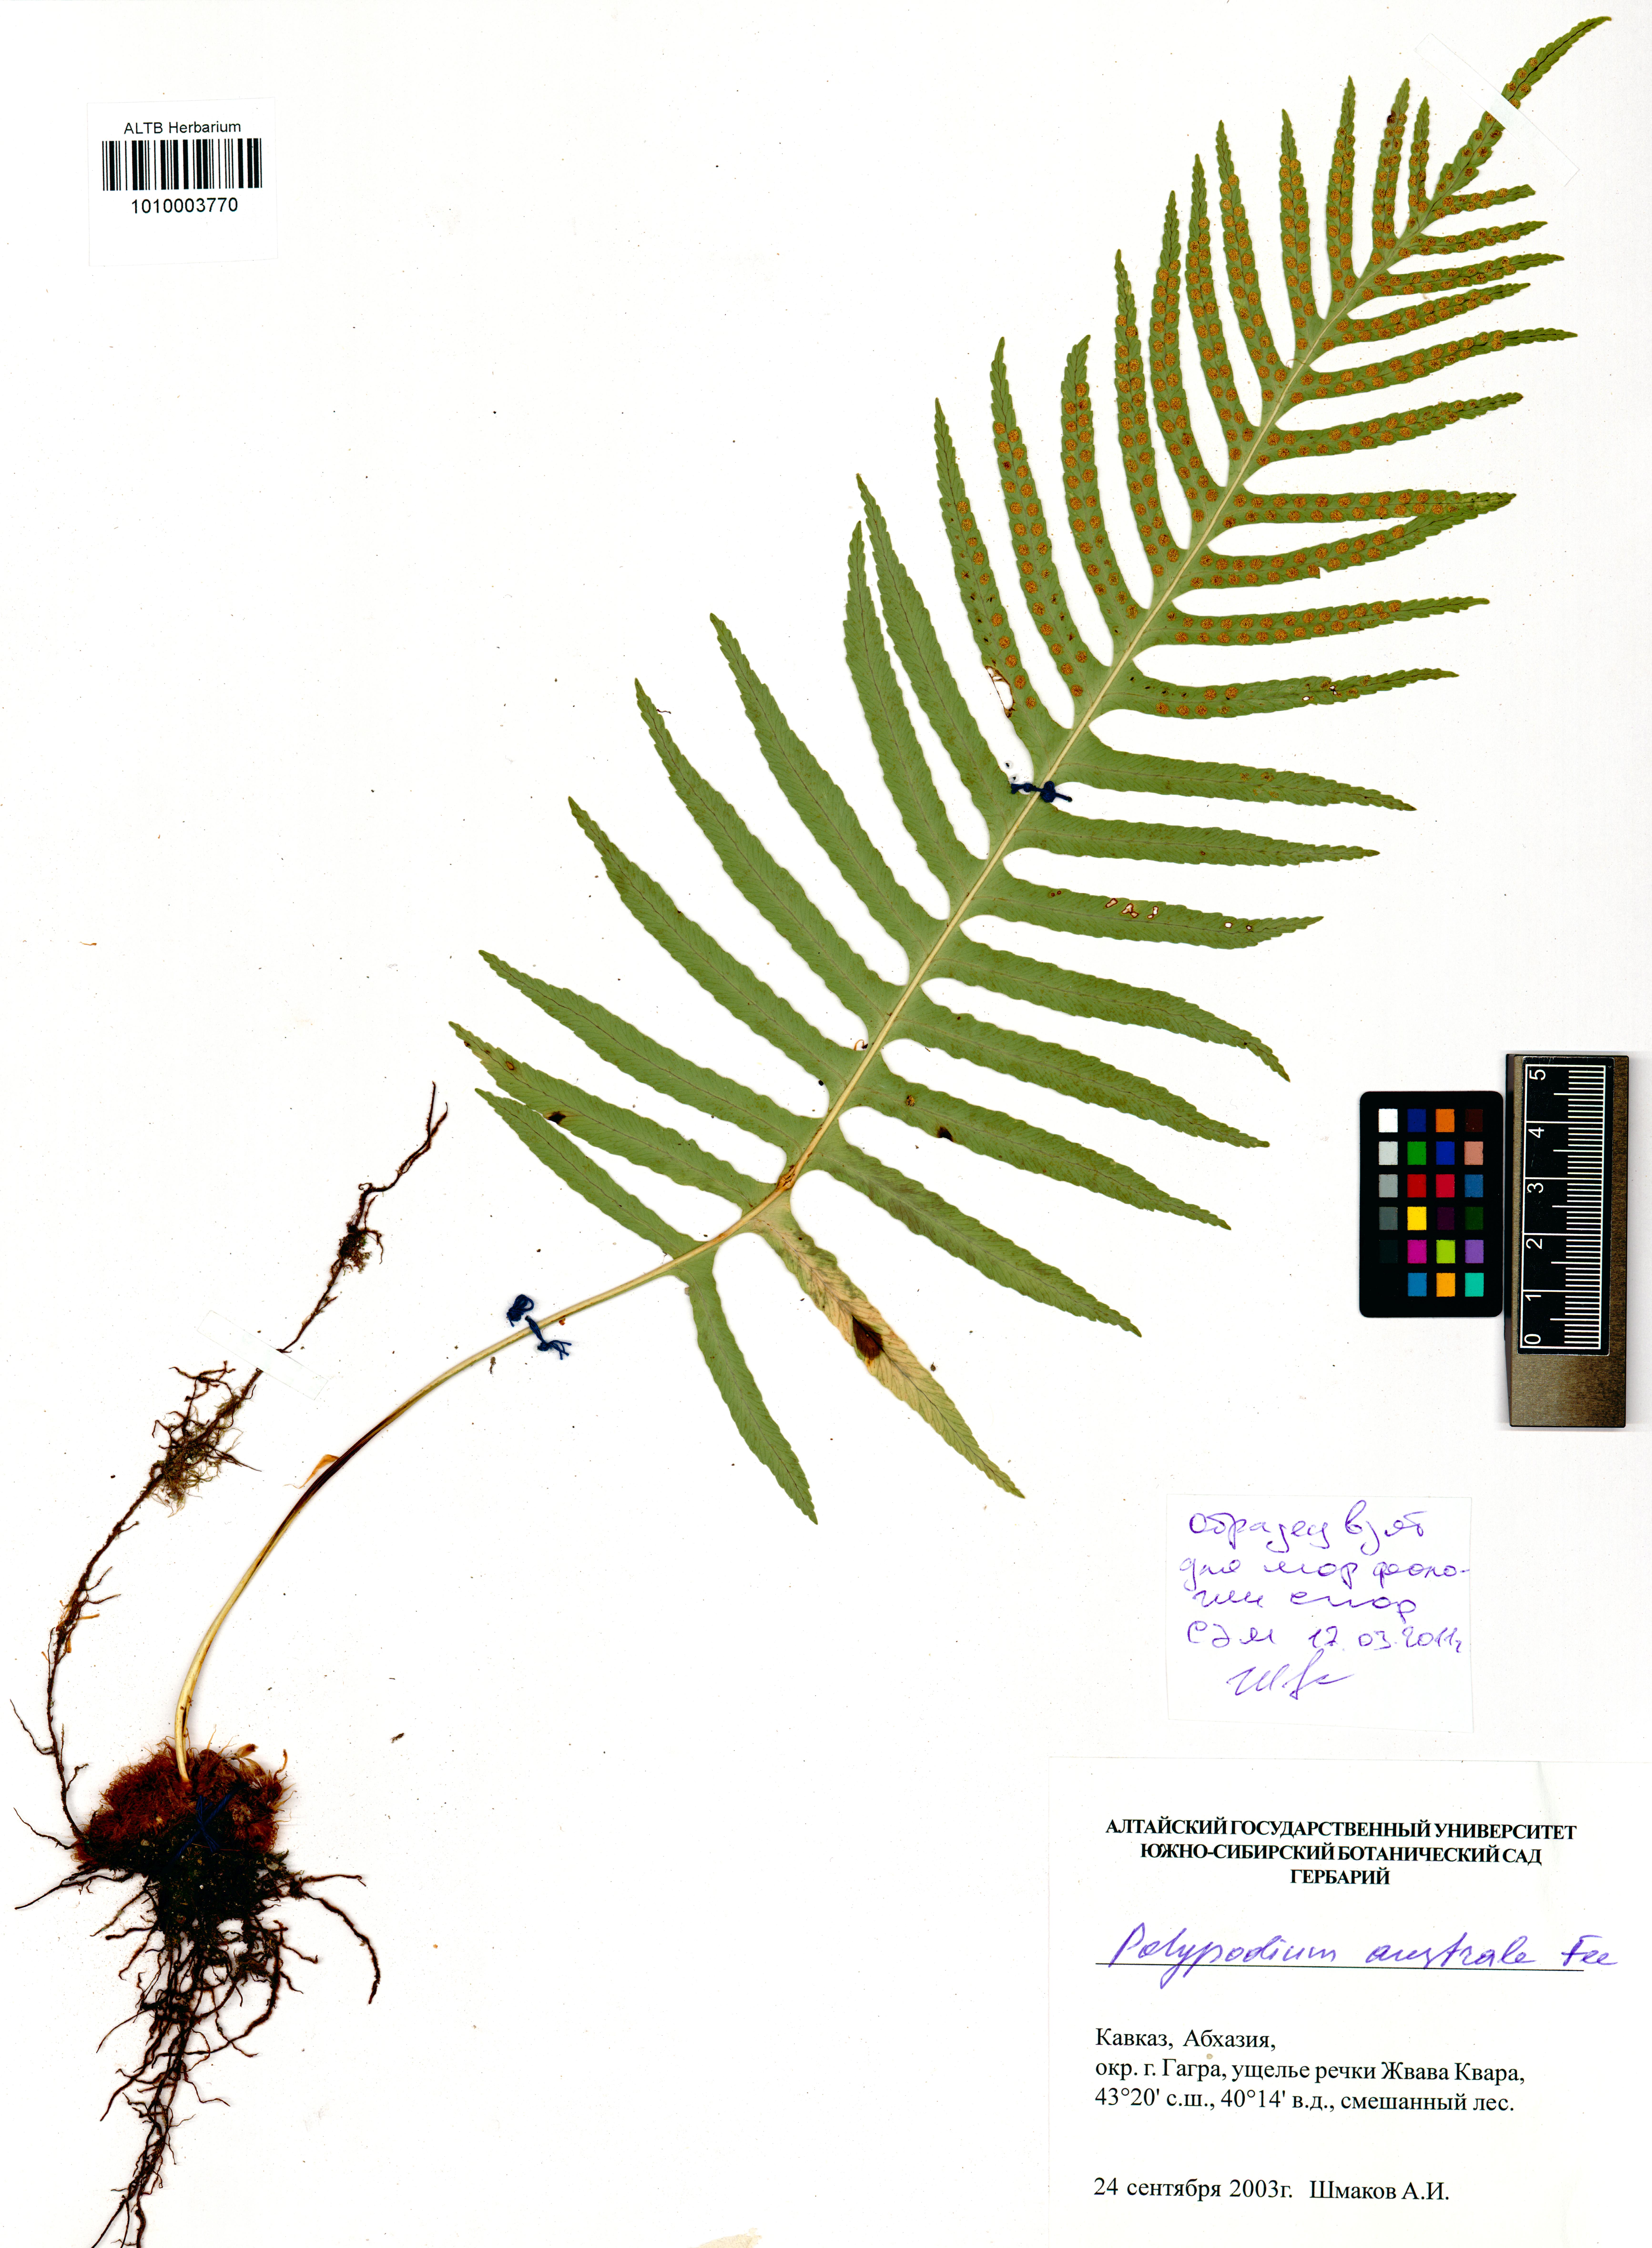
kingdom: Plantae
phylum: Tracheophyta
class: Polypodiopsida
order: Polypodiales
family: Polypodiaceae
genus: Polypodium
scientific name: Polypodium cambricum
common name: Southern polypody
